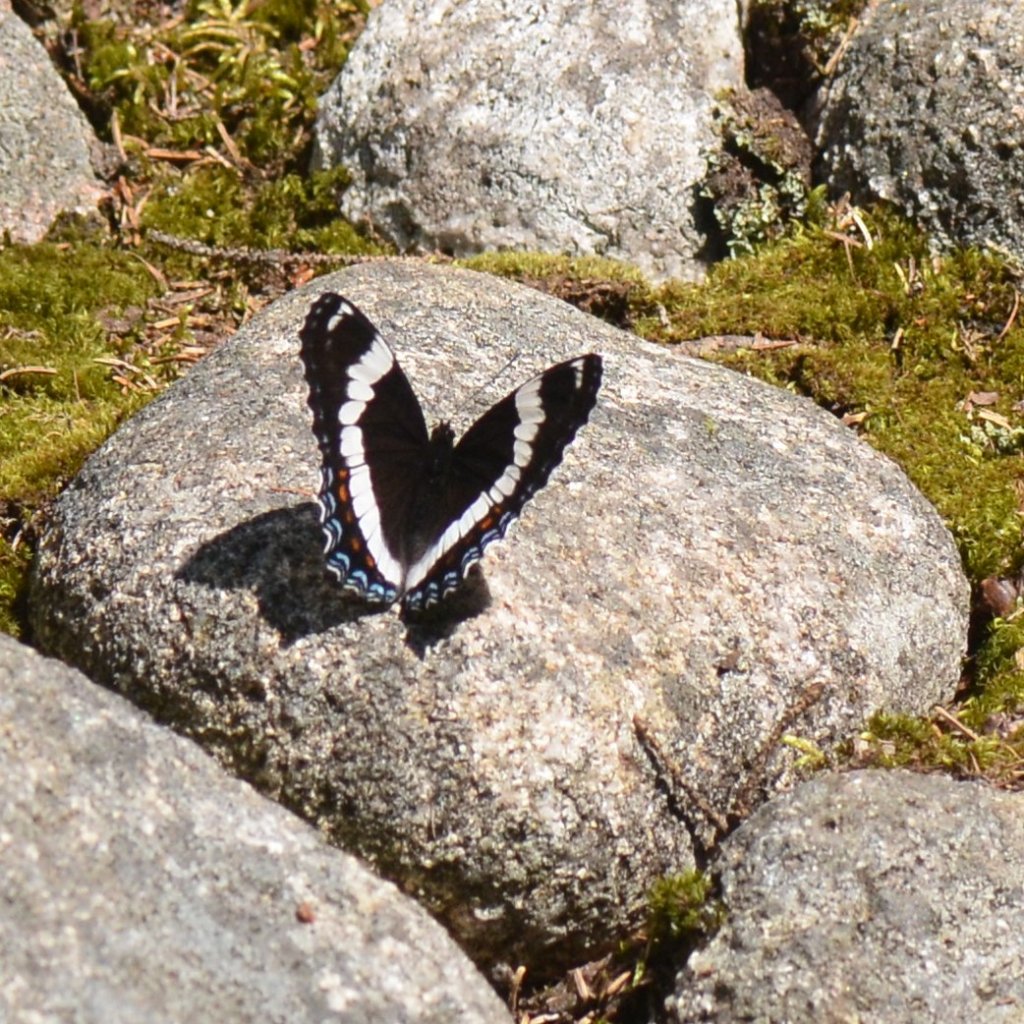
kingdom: Animalia
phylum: Arthropoda
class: Insecta
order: Lepidoptera
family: Nymphalidae
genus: Limenitis
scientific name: Limenitis arthemis
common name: Red-spotted Admiral
